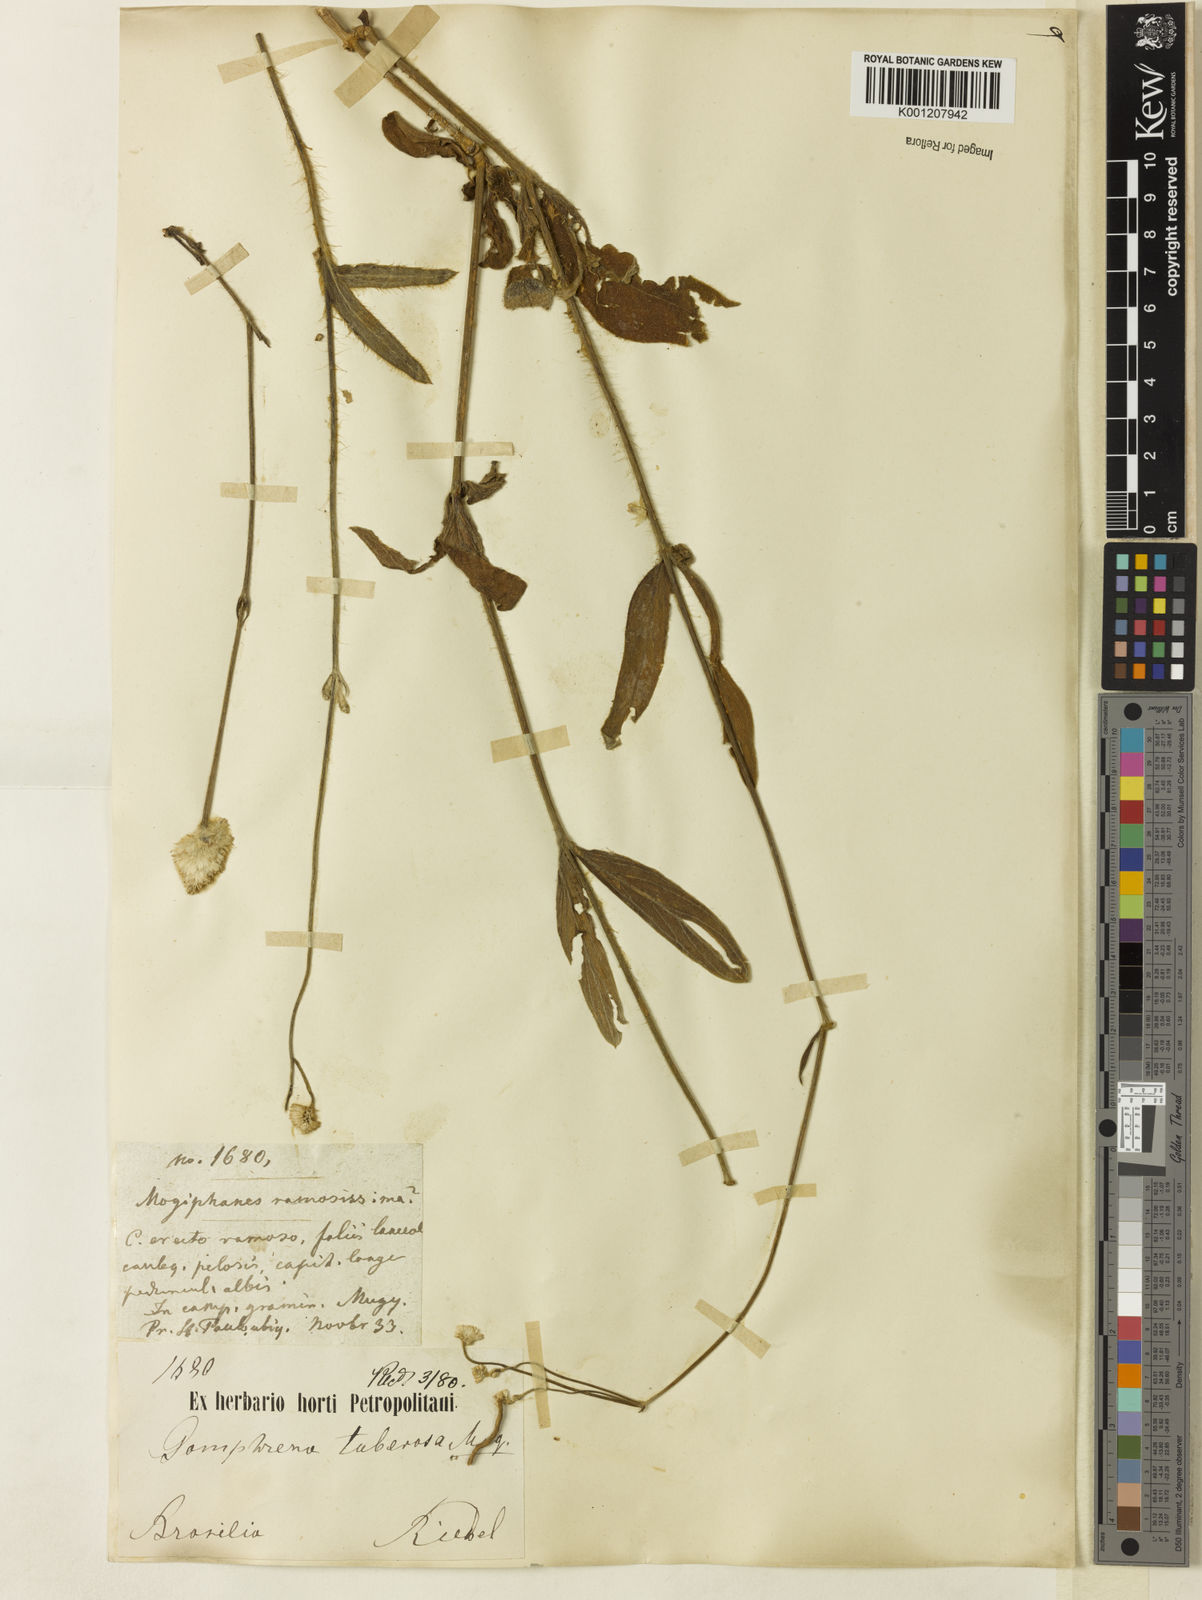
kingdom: Plantae
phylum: Tracheophyta
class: Magnoliopsida
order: Caryophyllales
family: Amaranthaceae
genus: Pfaffia
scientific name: Pfaffia tuberosa
